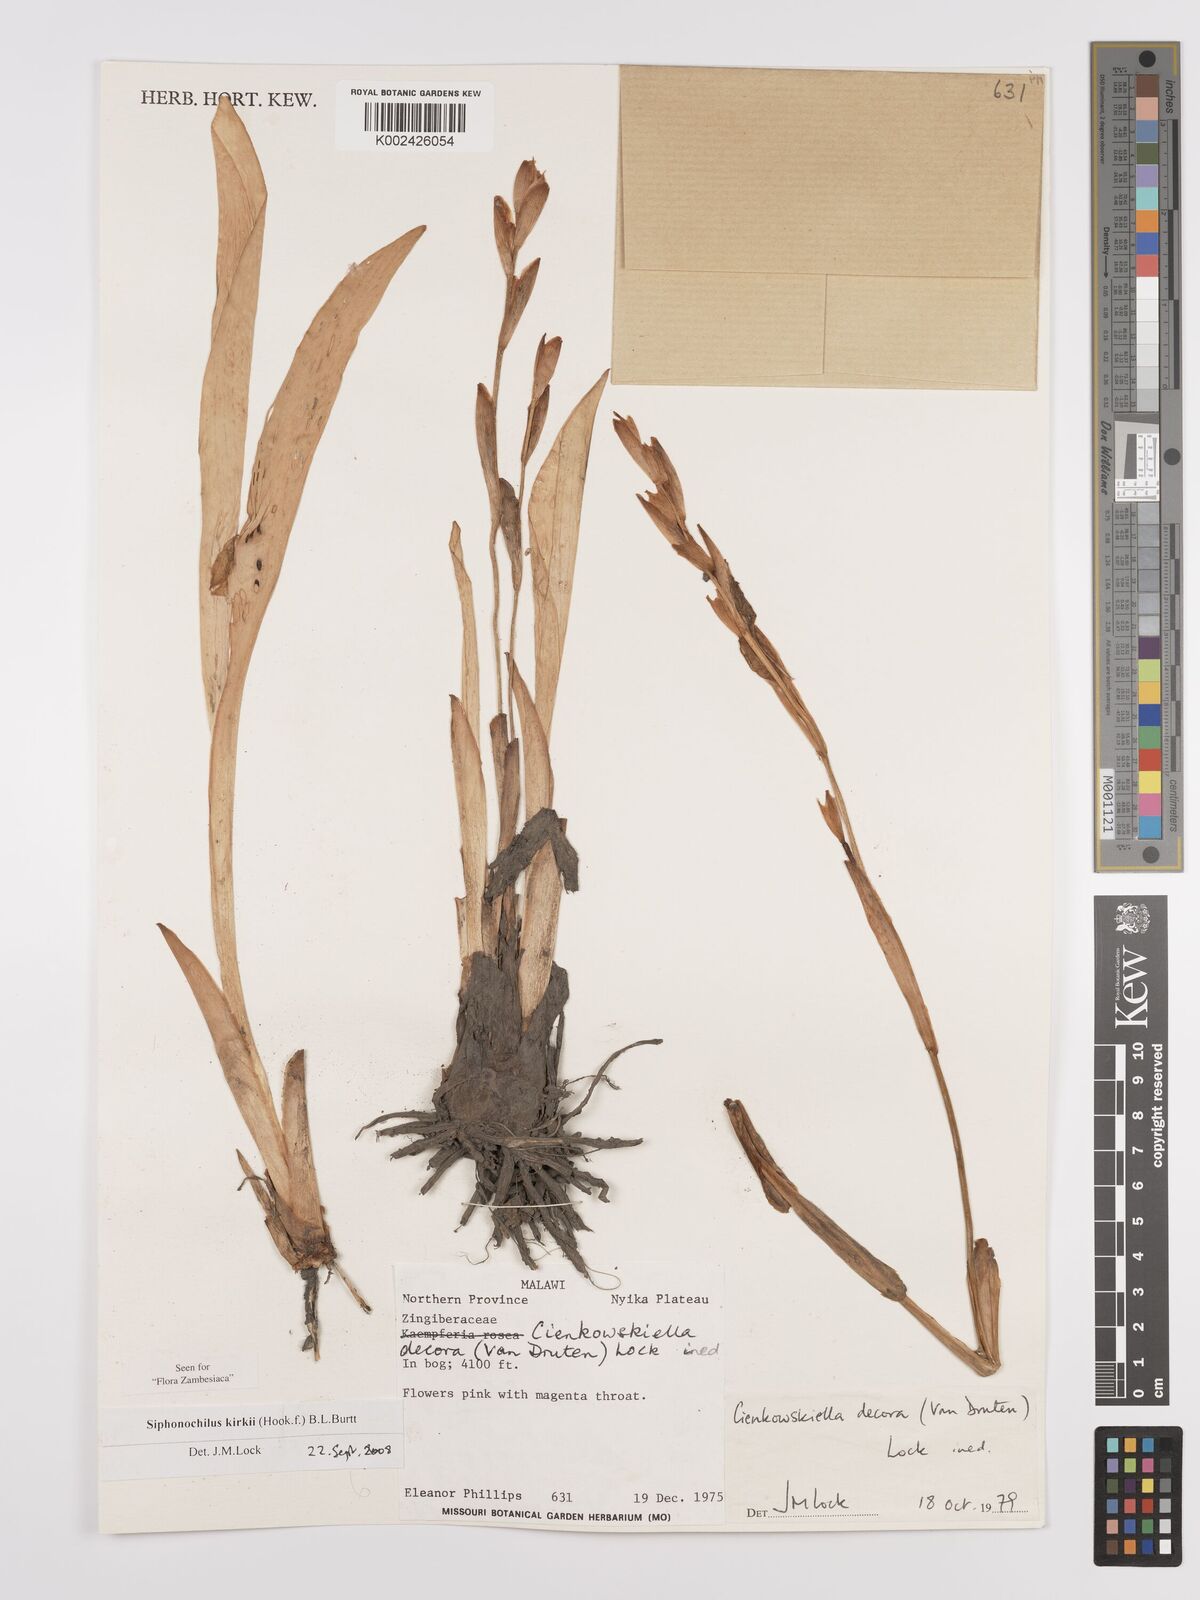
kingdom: Plantae
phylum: Tracheophyta
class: Liliopsida
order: Zingiberales
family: Zingiberaceae
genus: Siphonochilus
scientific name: Siphonochilus kirkii
